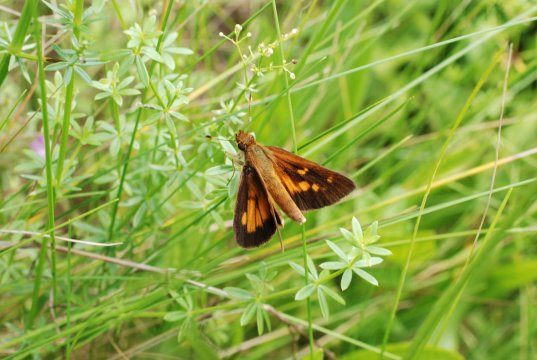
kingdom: Animalia
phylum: Arthropoda
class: Insecta
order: Lepidoptera
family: Hesperiidae
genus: Poanes
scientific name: Poanes viator
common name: Broad-winged Skipper
